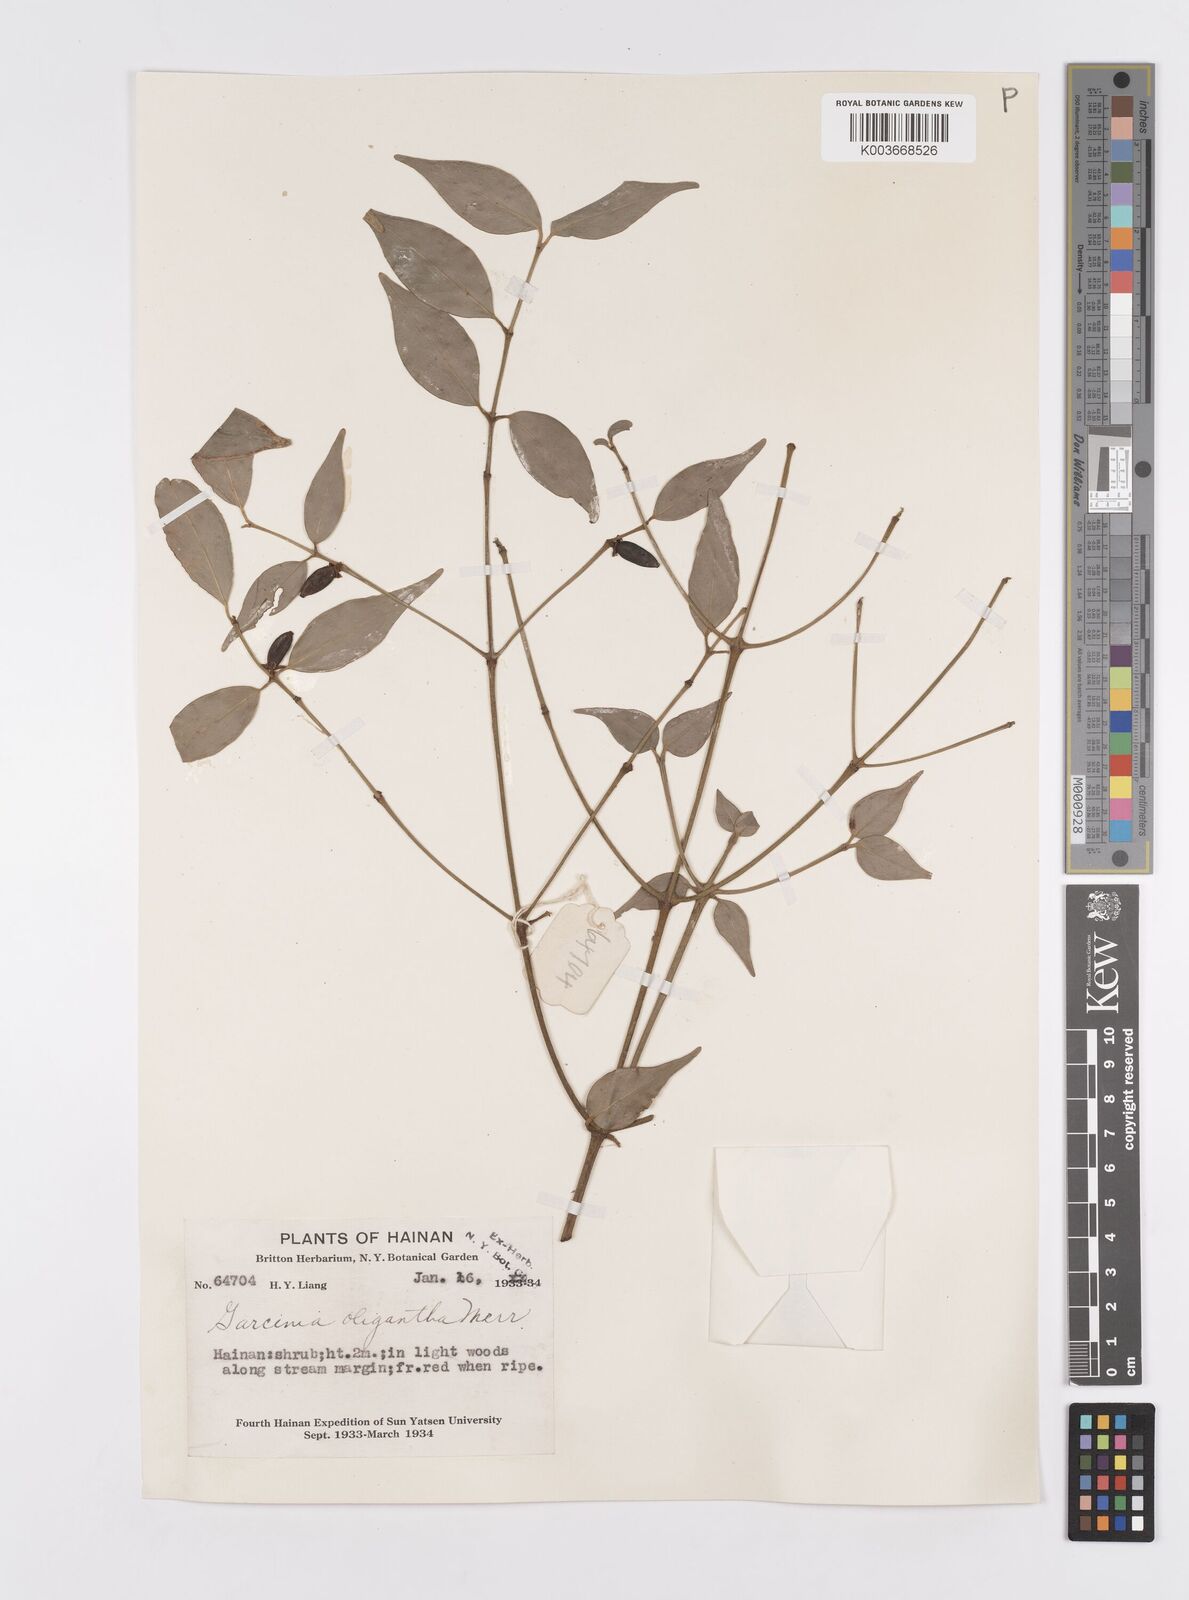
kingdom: Plantae
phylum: Tracheophyta
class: Magnoliopsida
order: Malpighiales
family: Clusiaceae
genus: Garcinia
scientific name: Garcinia oligantha
